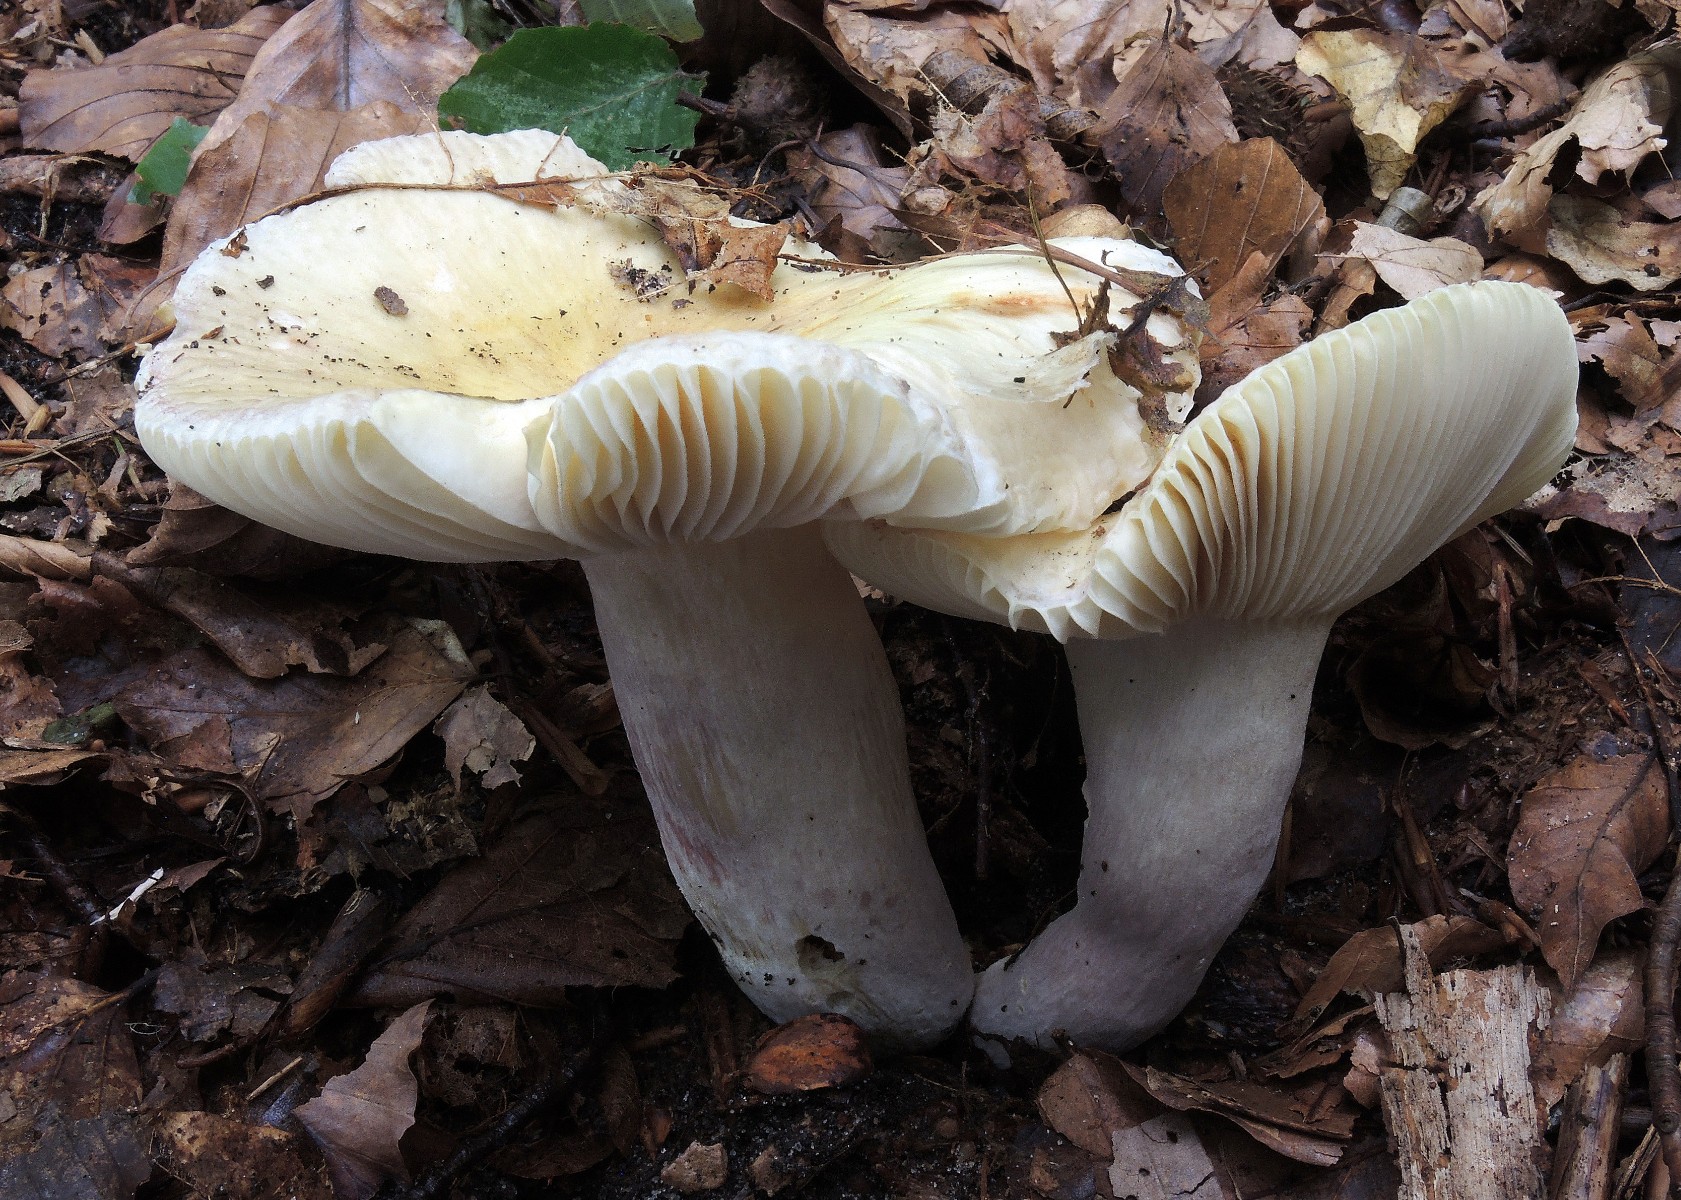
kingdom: Fungi
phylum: Basidiomycota
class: Agaricomycetes
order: Russulales
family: Russulaceae
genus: Russula
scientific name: Russula violeipes
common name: ferskengul skørhat
